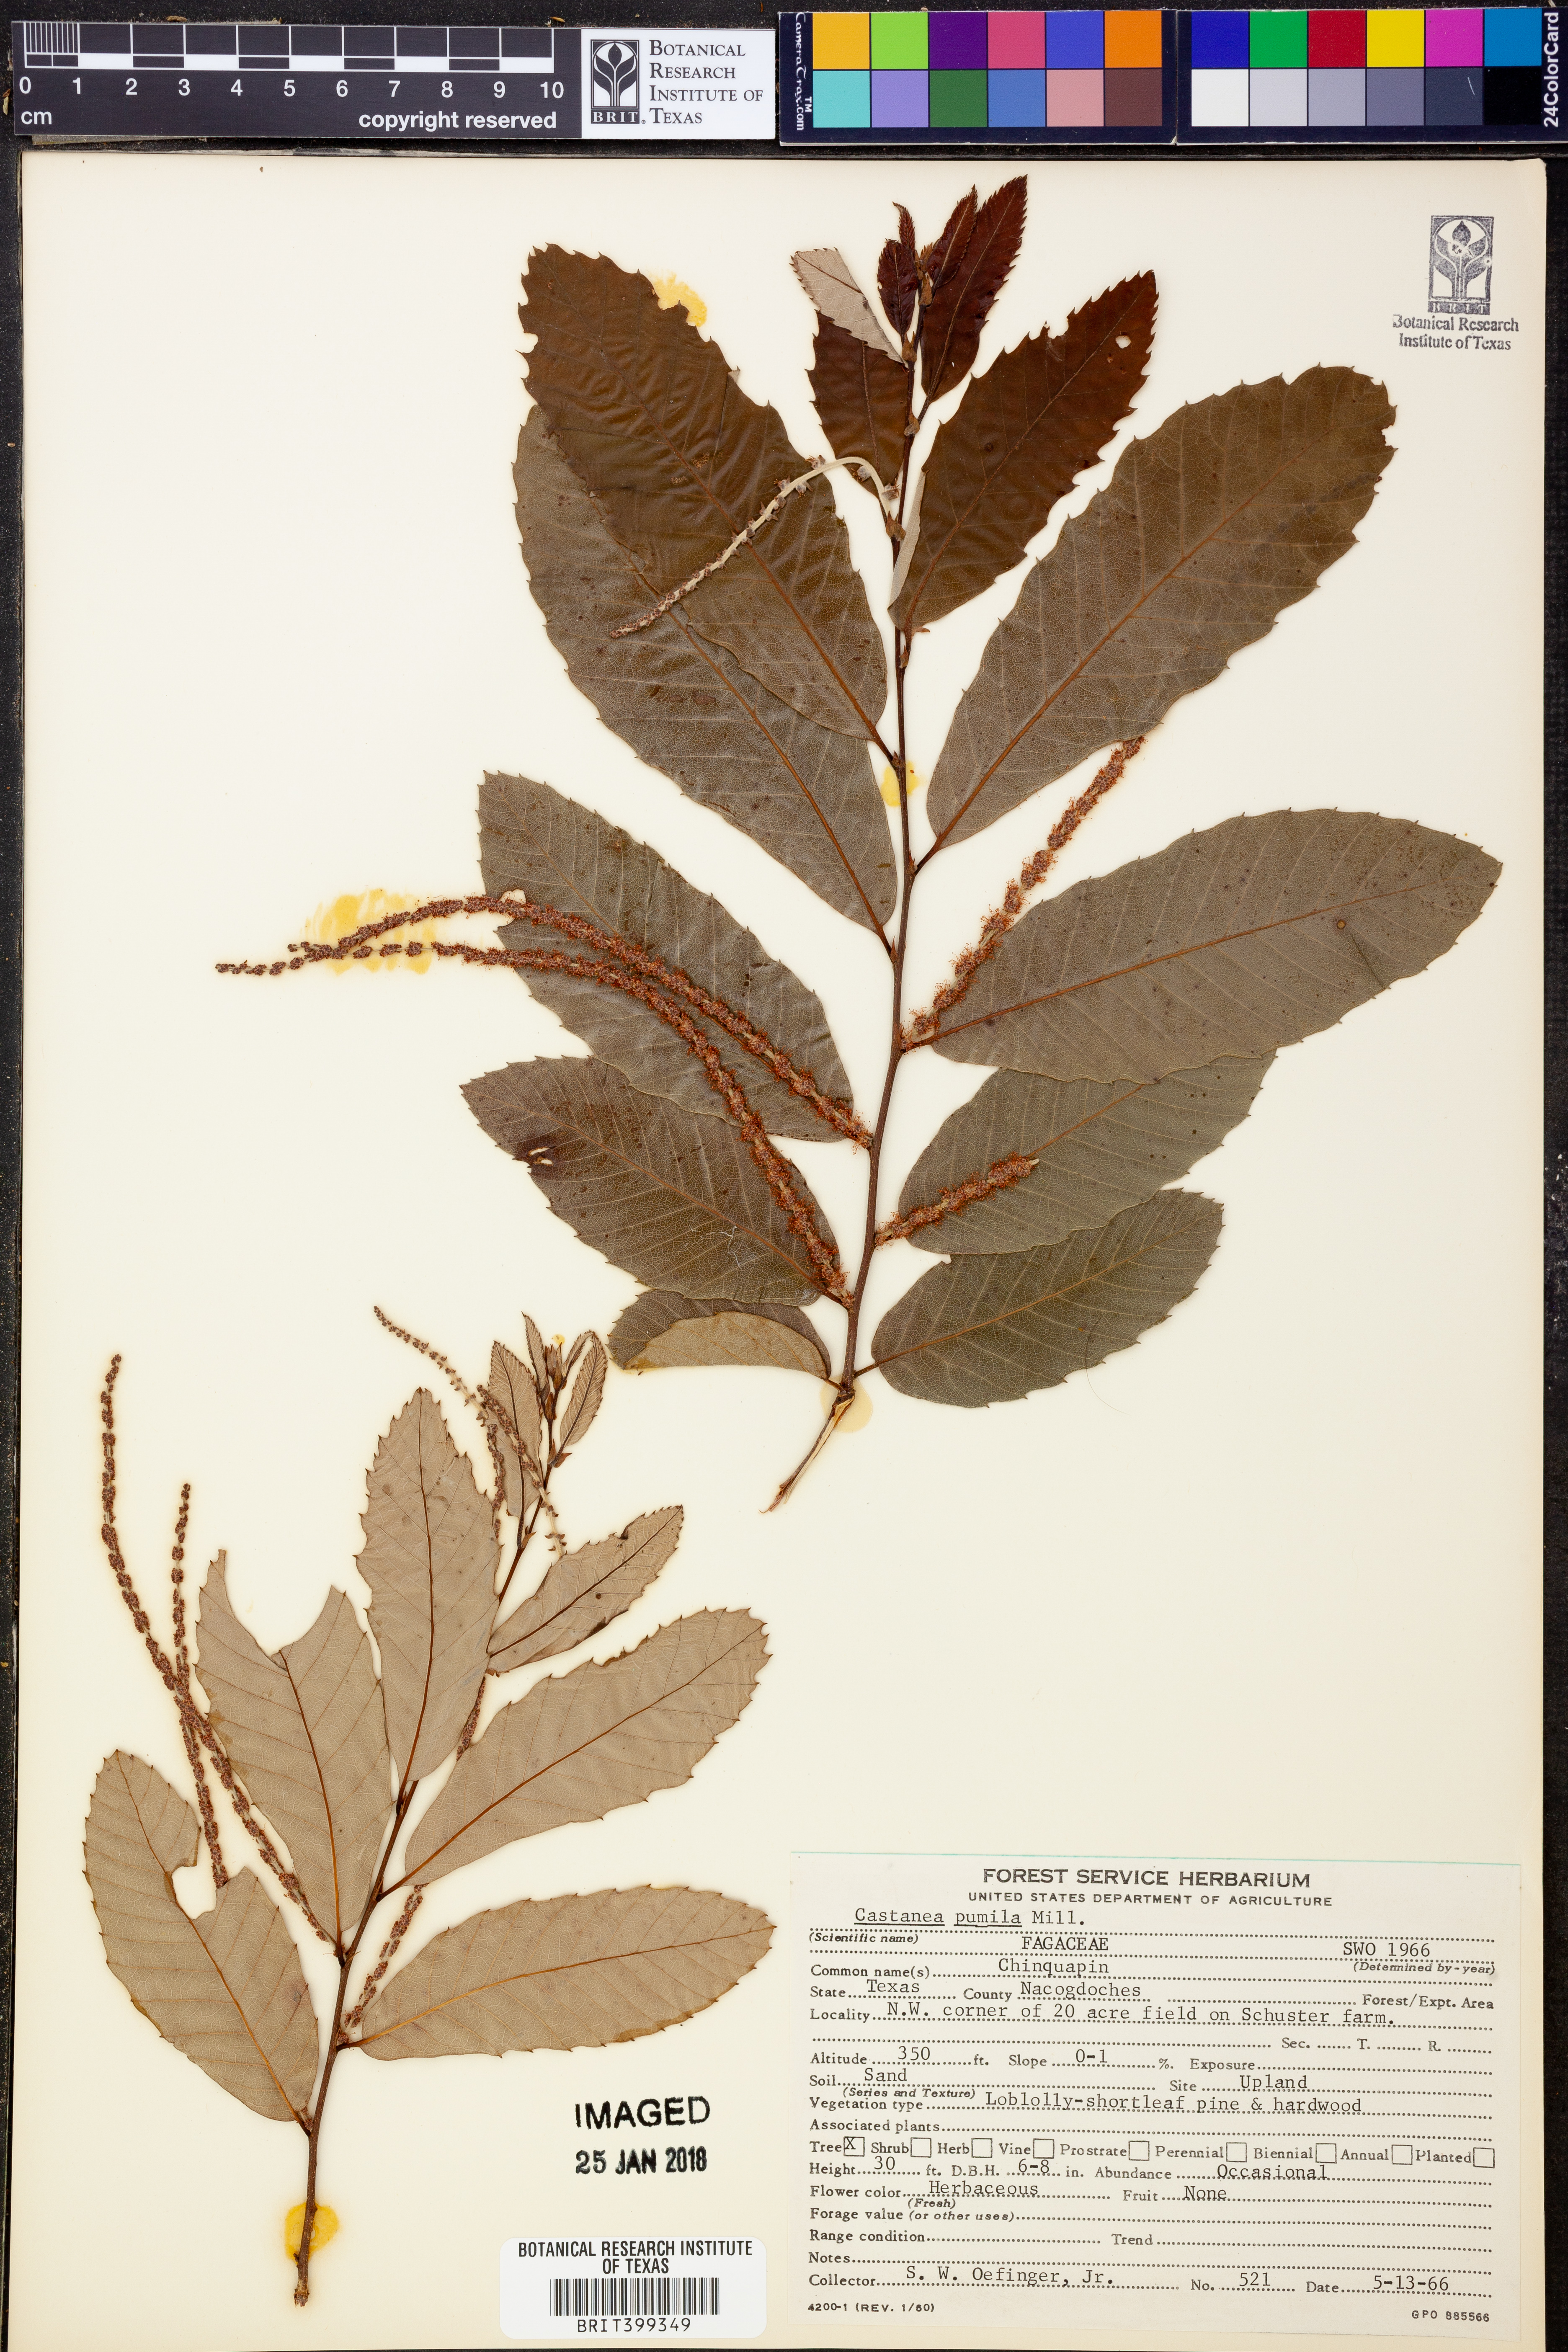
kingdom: Plantae
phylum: Tracheophyta
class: Magnoliopsida
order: Fagales
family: Fagaceae
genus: Castanea
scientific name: Castanea pumila
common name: Chinkapin
